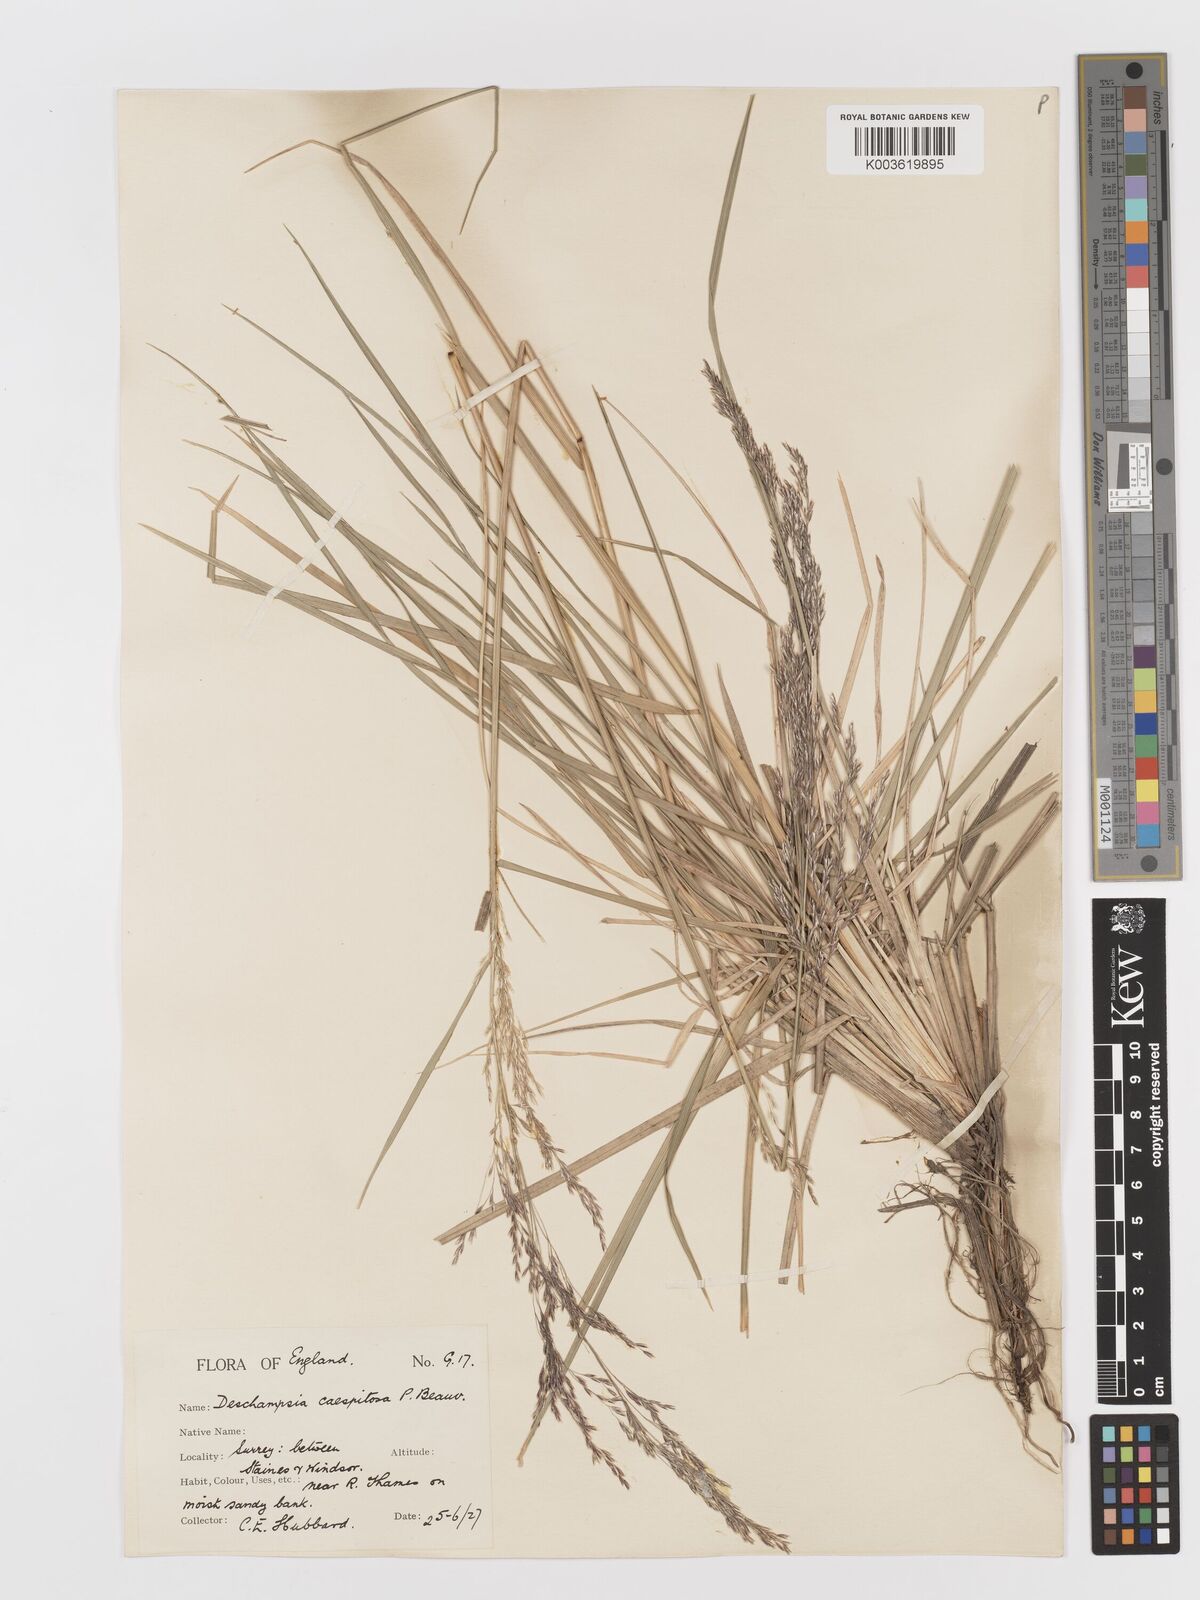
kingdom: Plantae
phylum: Tracheophyta
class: Liliopsida
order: Poales
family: Poaceae
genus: Deschampsia
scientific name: Deschampsia
